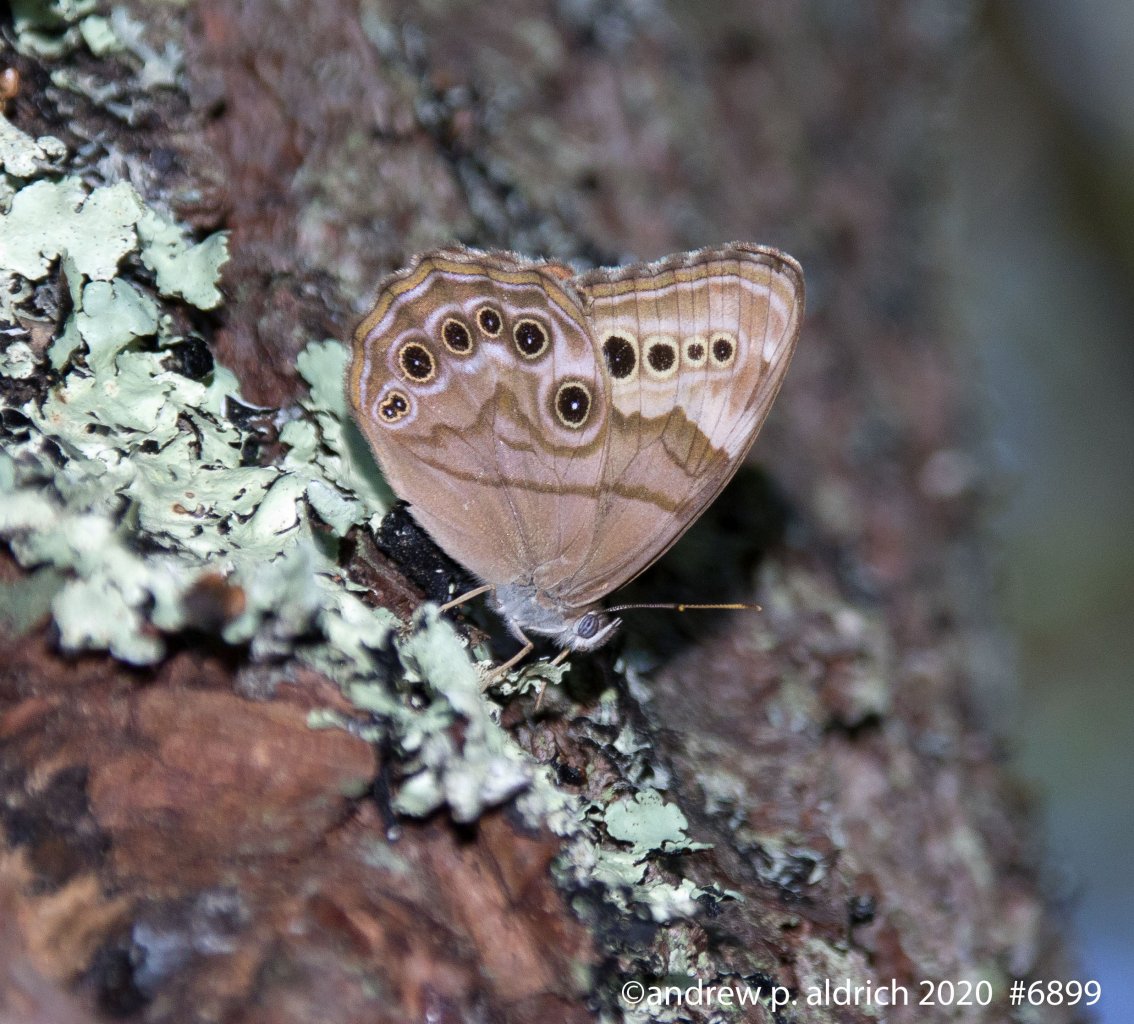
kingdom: Animalia
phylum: Arthropoda
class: Insecta
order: Lepidoptera
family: Nymphalidae
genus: Lethe
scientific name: Lethe anthedon
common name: Northern Pearly-Eye
